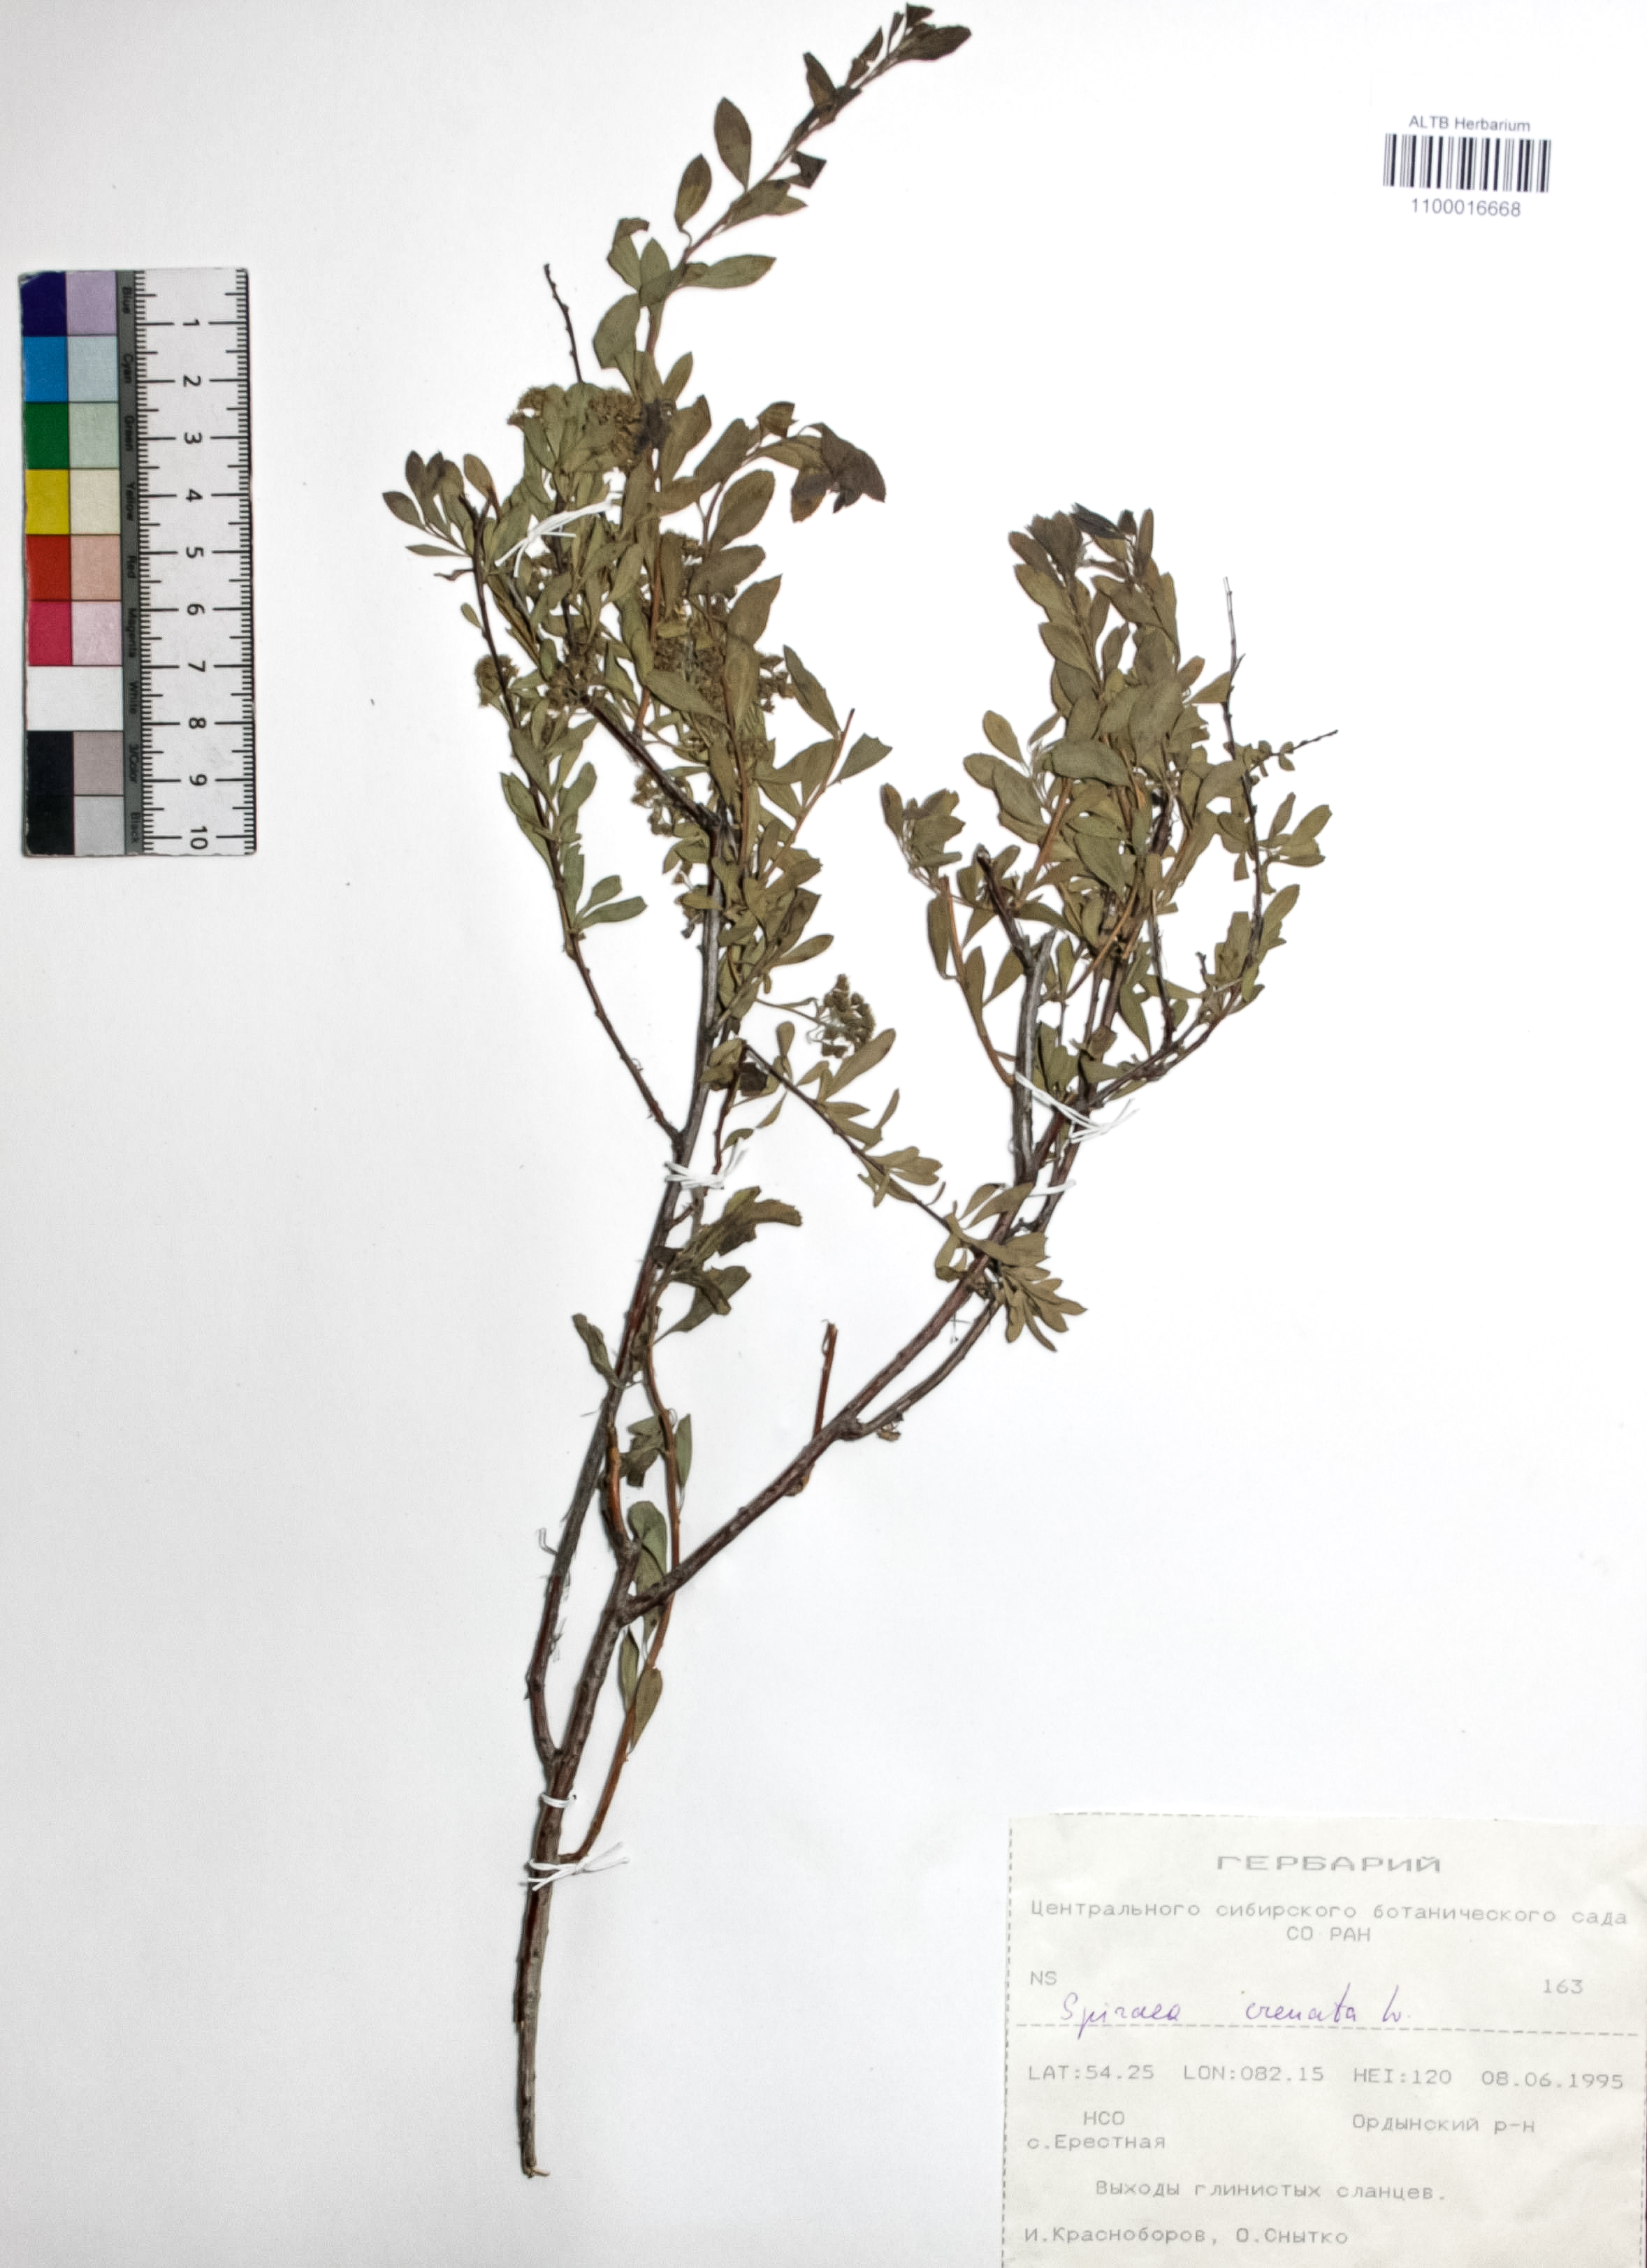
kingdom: Plantae
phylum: Tracheophyta
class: Magnoliopsida
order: Rosales
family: Rosaceae
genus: Spiraea
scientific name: Spiraea crenata
